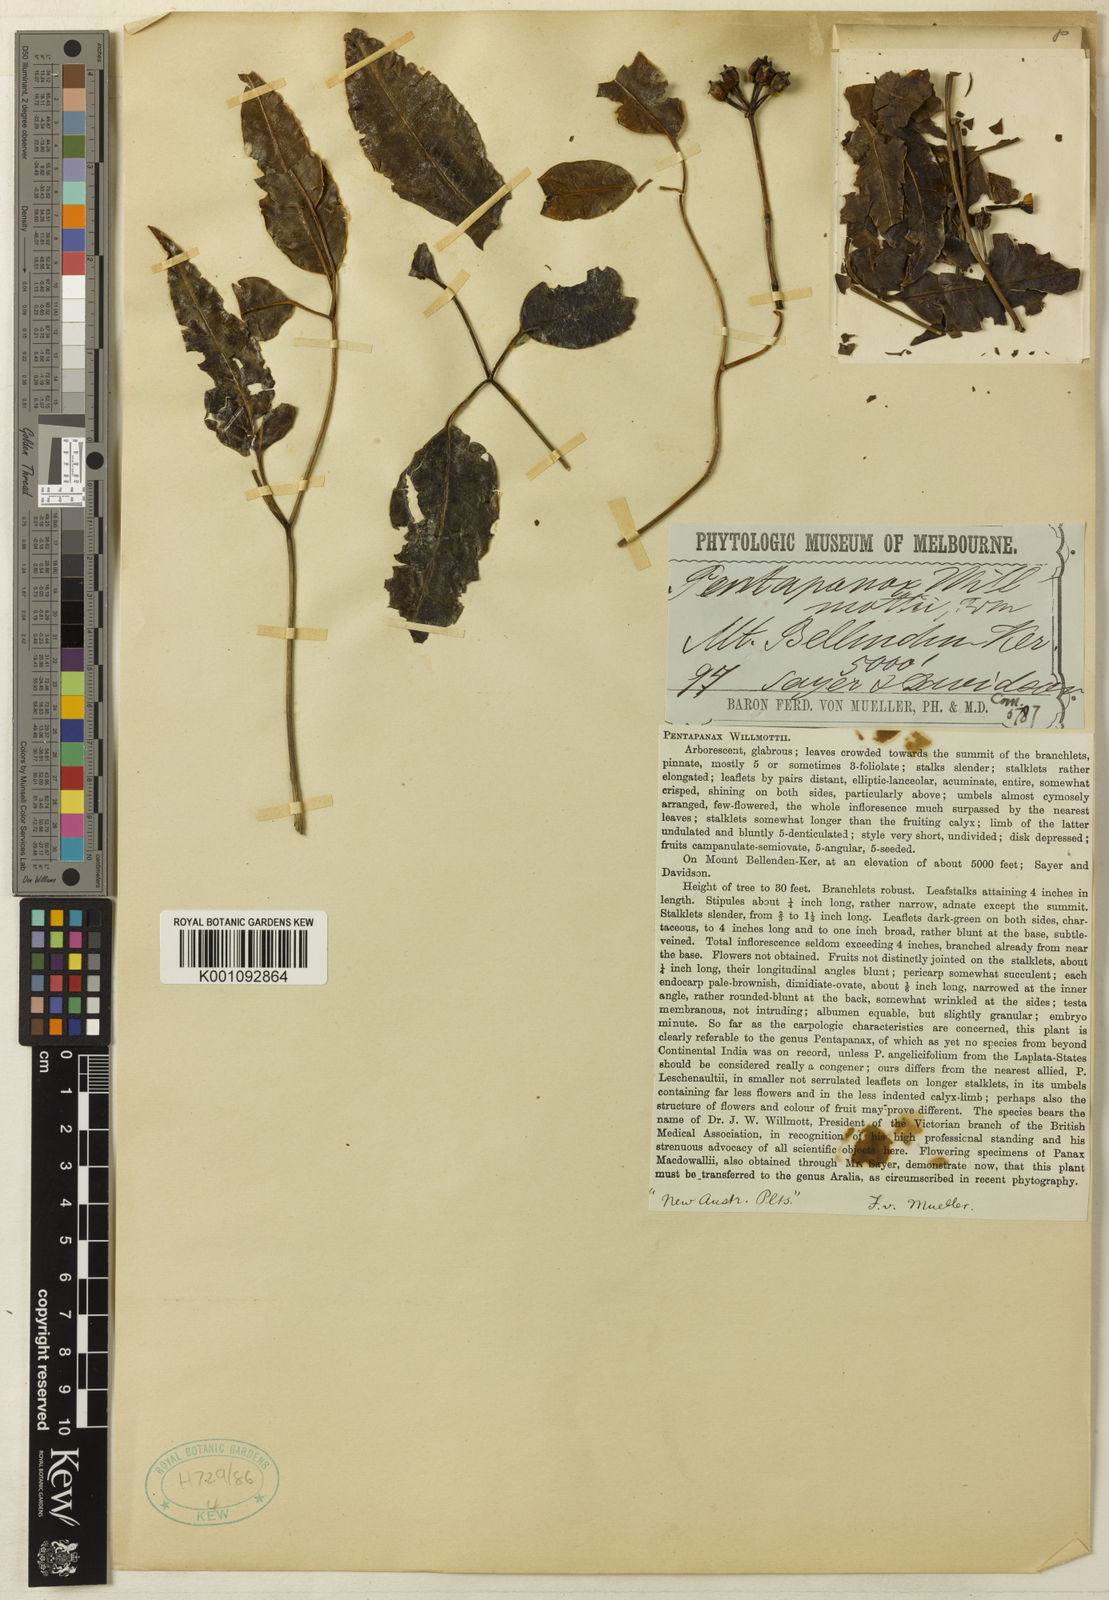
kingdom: Plantae
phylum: Tracheophyta
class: Magnoliopsida
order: Apiales
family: Araliaceae
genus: Polyscias
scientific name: Polyscias
